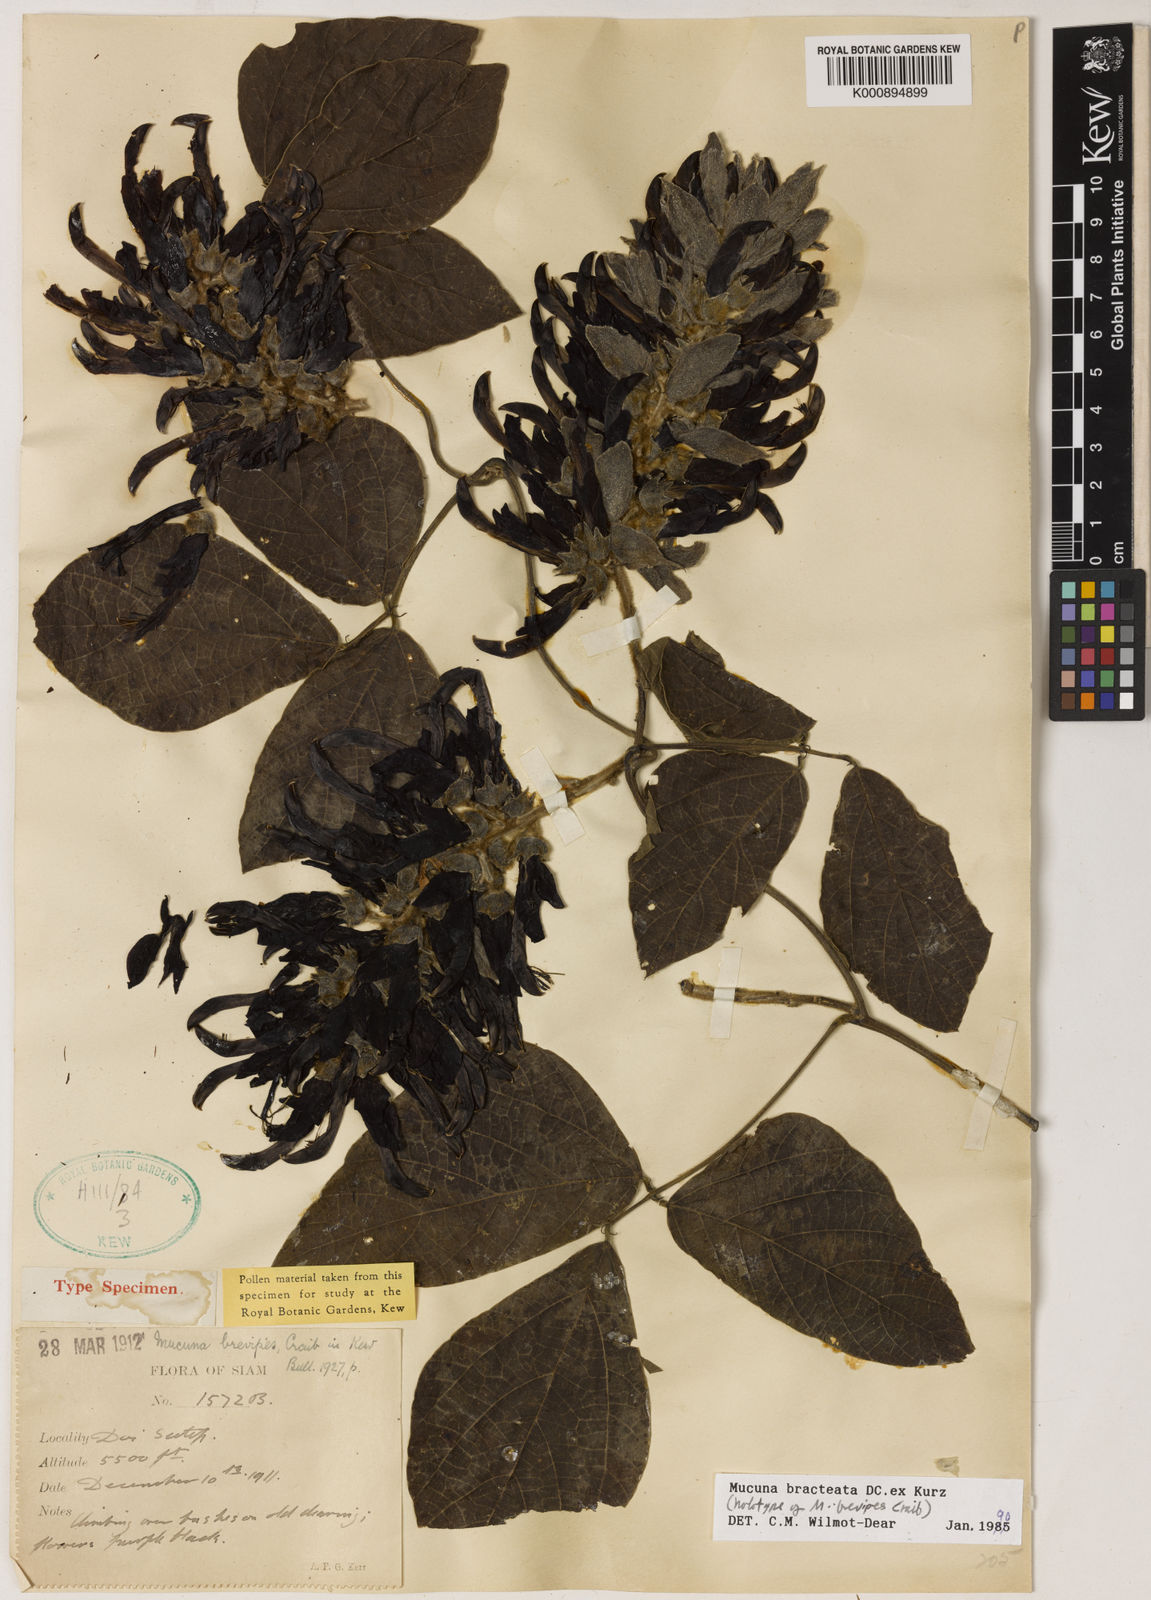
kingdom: Plantae
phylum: Tracheophyta
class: Magnoliopsida
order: Fabales
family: Fabaceae
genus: Mucuna
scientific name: Mucuna
